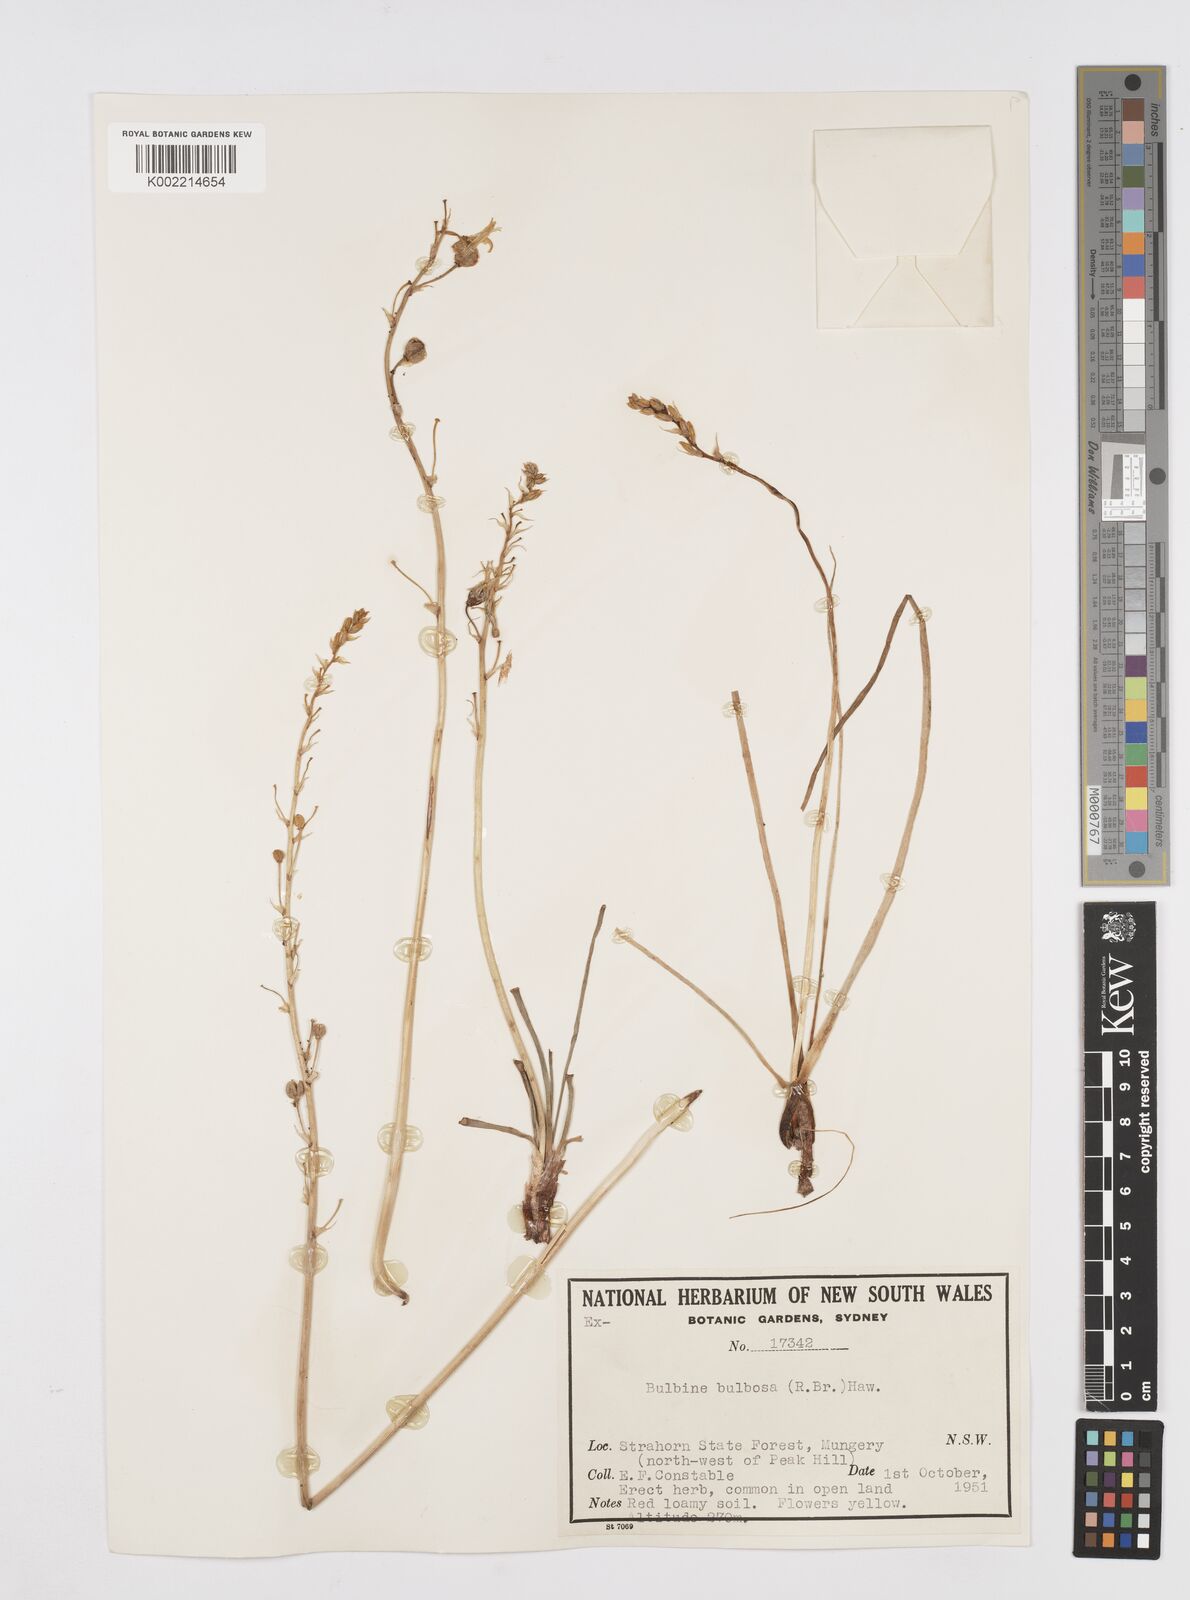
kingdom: Plantae
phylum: Tracheophyta
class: Liliopsida
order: Asparagales
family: Asphodelaceae
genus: Bulbine
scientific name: Bulbine bulbosa
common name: Golden-lily
